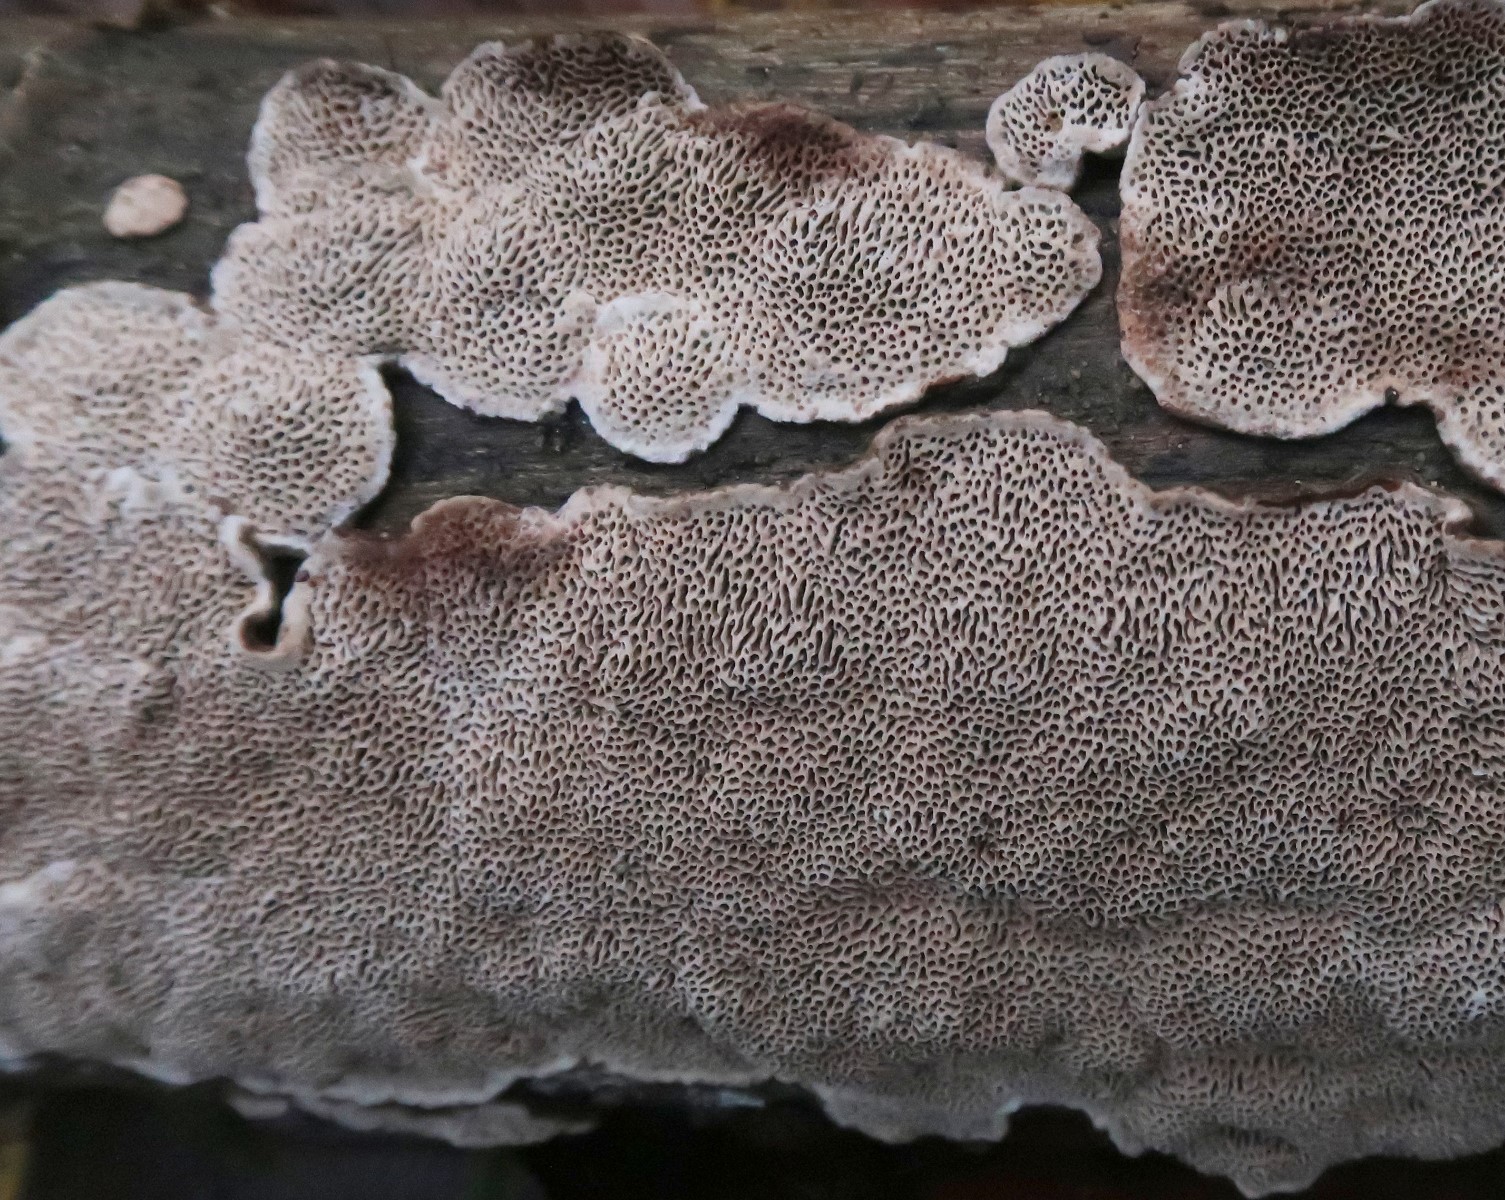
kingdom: Fungi
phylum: Basidiomycota
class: Agaricomycetes
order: Polyporales
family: Polyporaceae
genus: Podofomes
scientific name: Podofomes mollis
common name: blød begporesvamp
